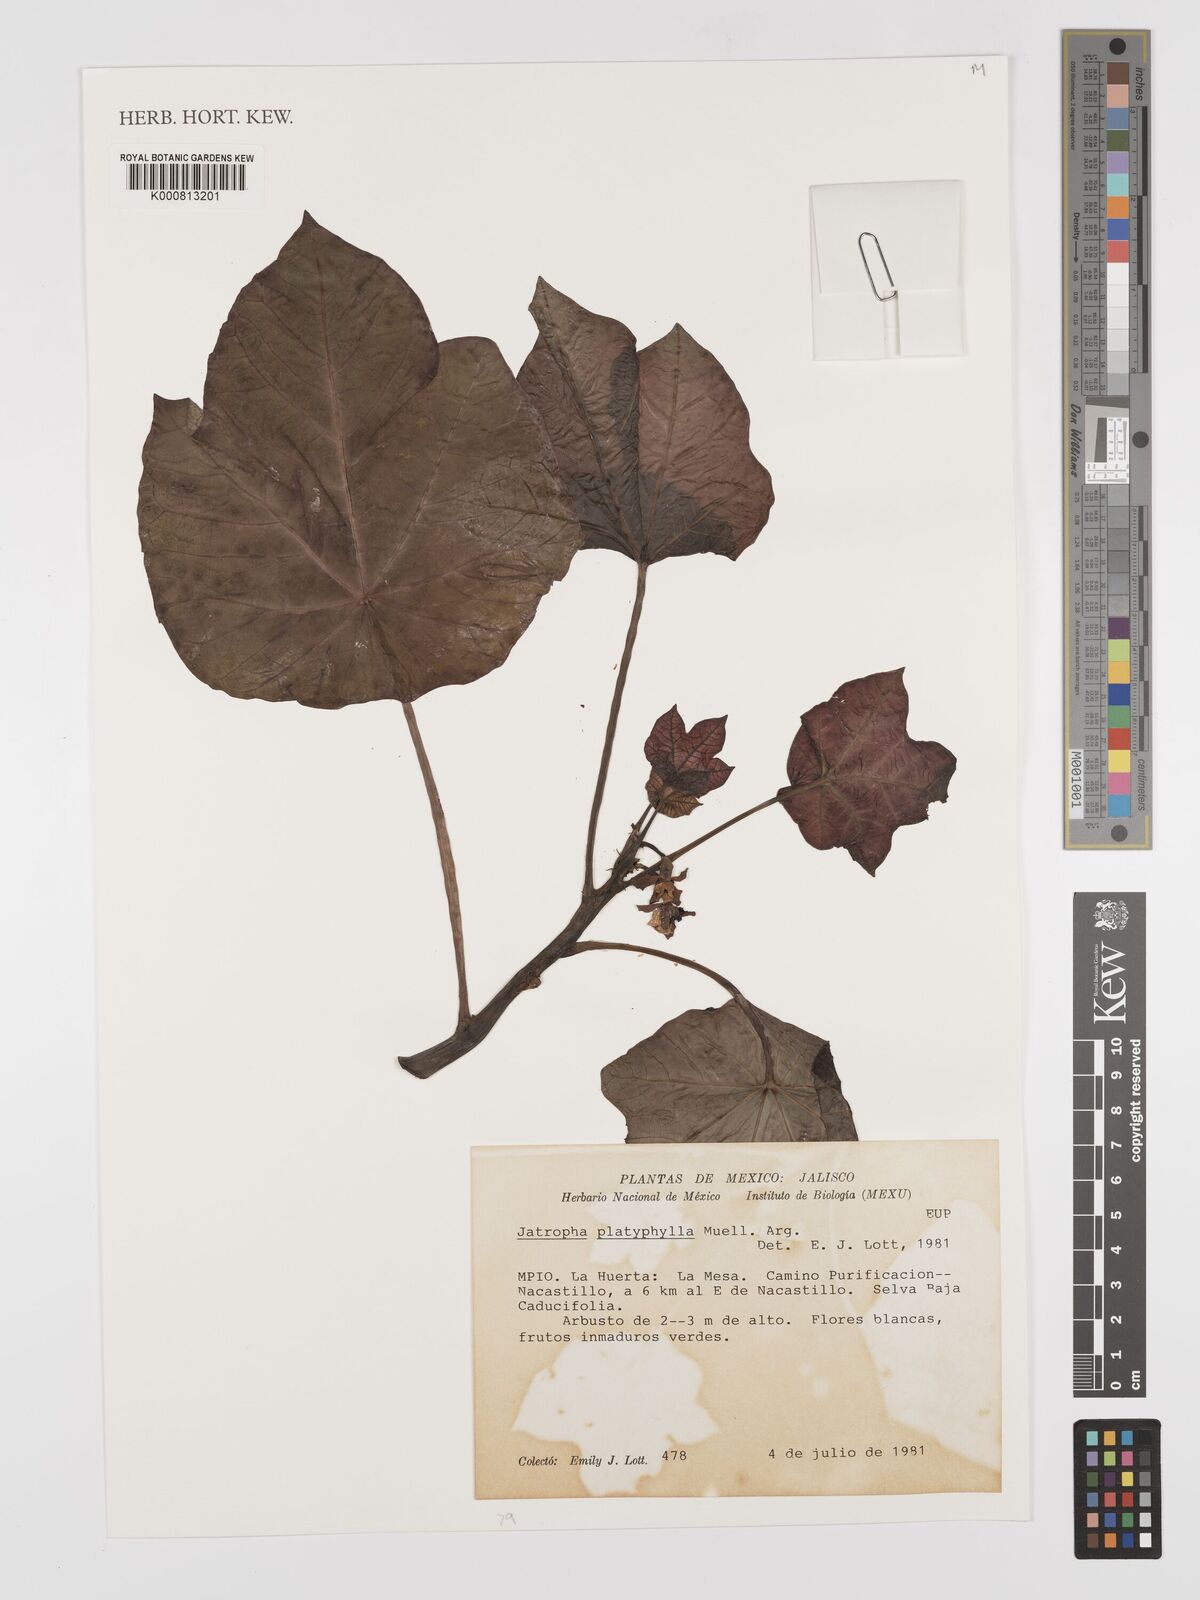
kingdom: Plantae
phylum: Tracheophyta
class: Magnoliopsida
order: Malpighiales
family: Euphorbiaceae
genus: Jatropha
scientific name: Jatropha
